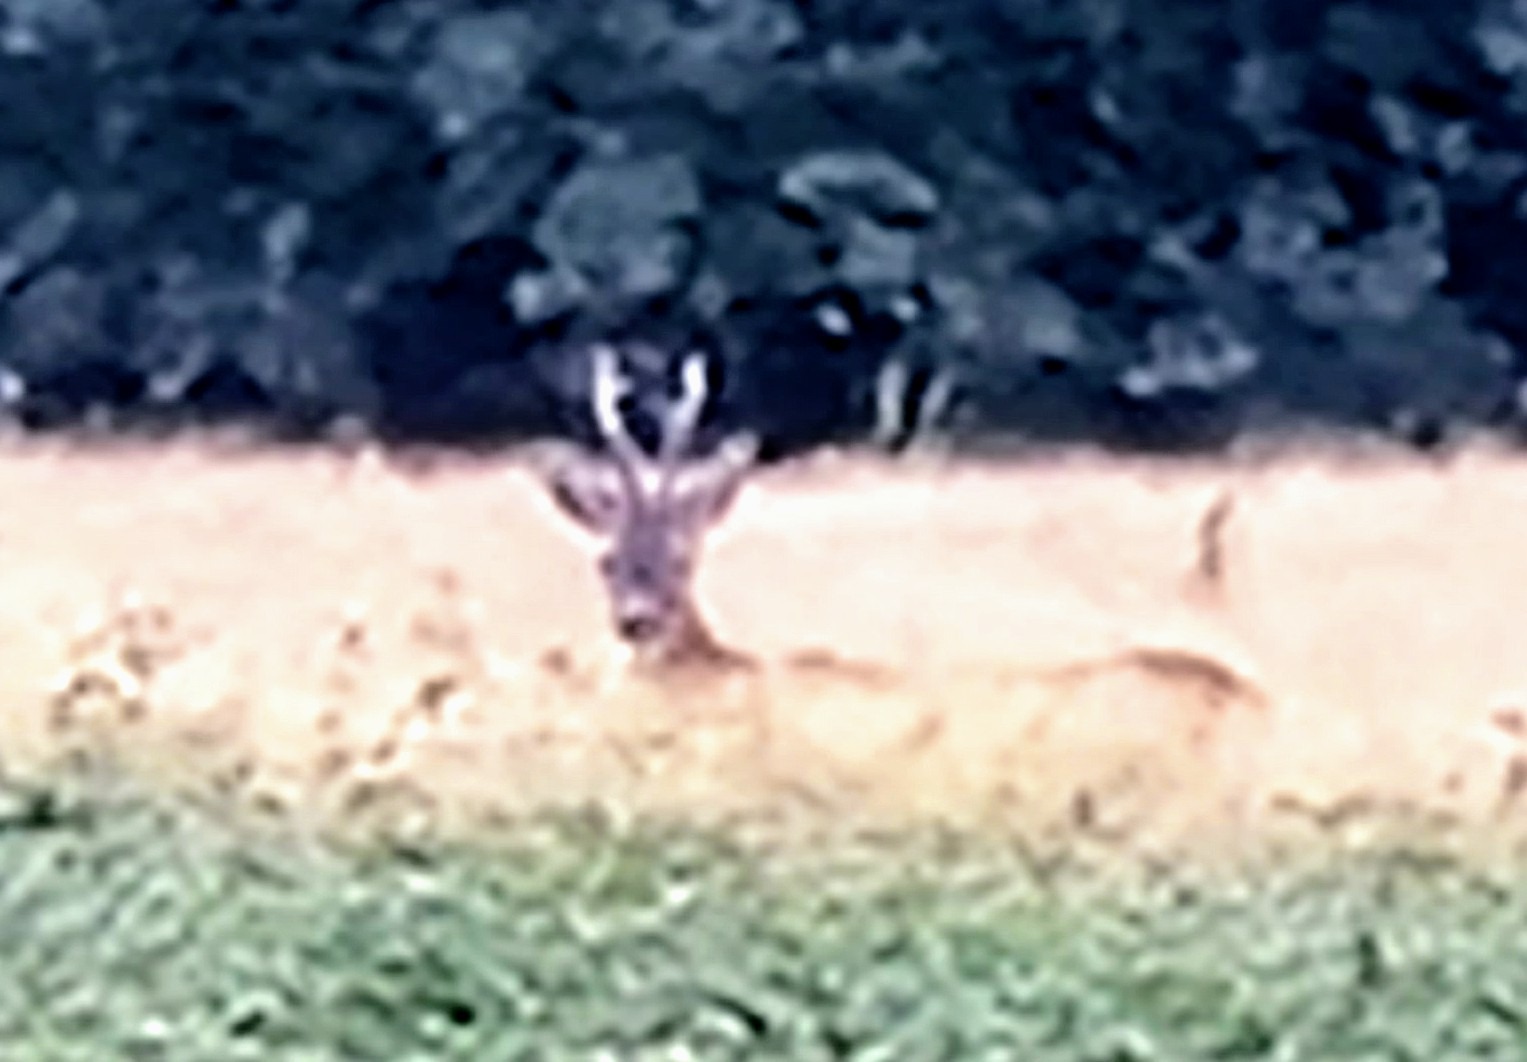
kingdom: Animalia
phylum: Chordata
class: Mammalia
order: Artiodactyla
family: Cervidae
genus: Capreolus
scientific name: Capreolus capreolus
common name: Rådyr
